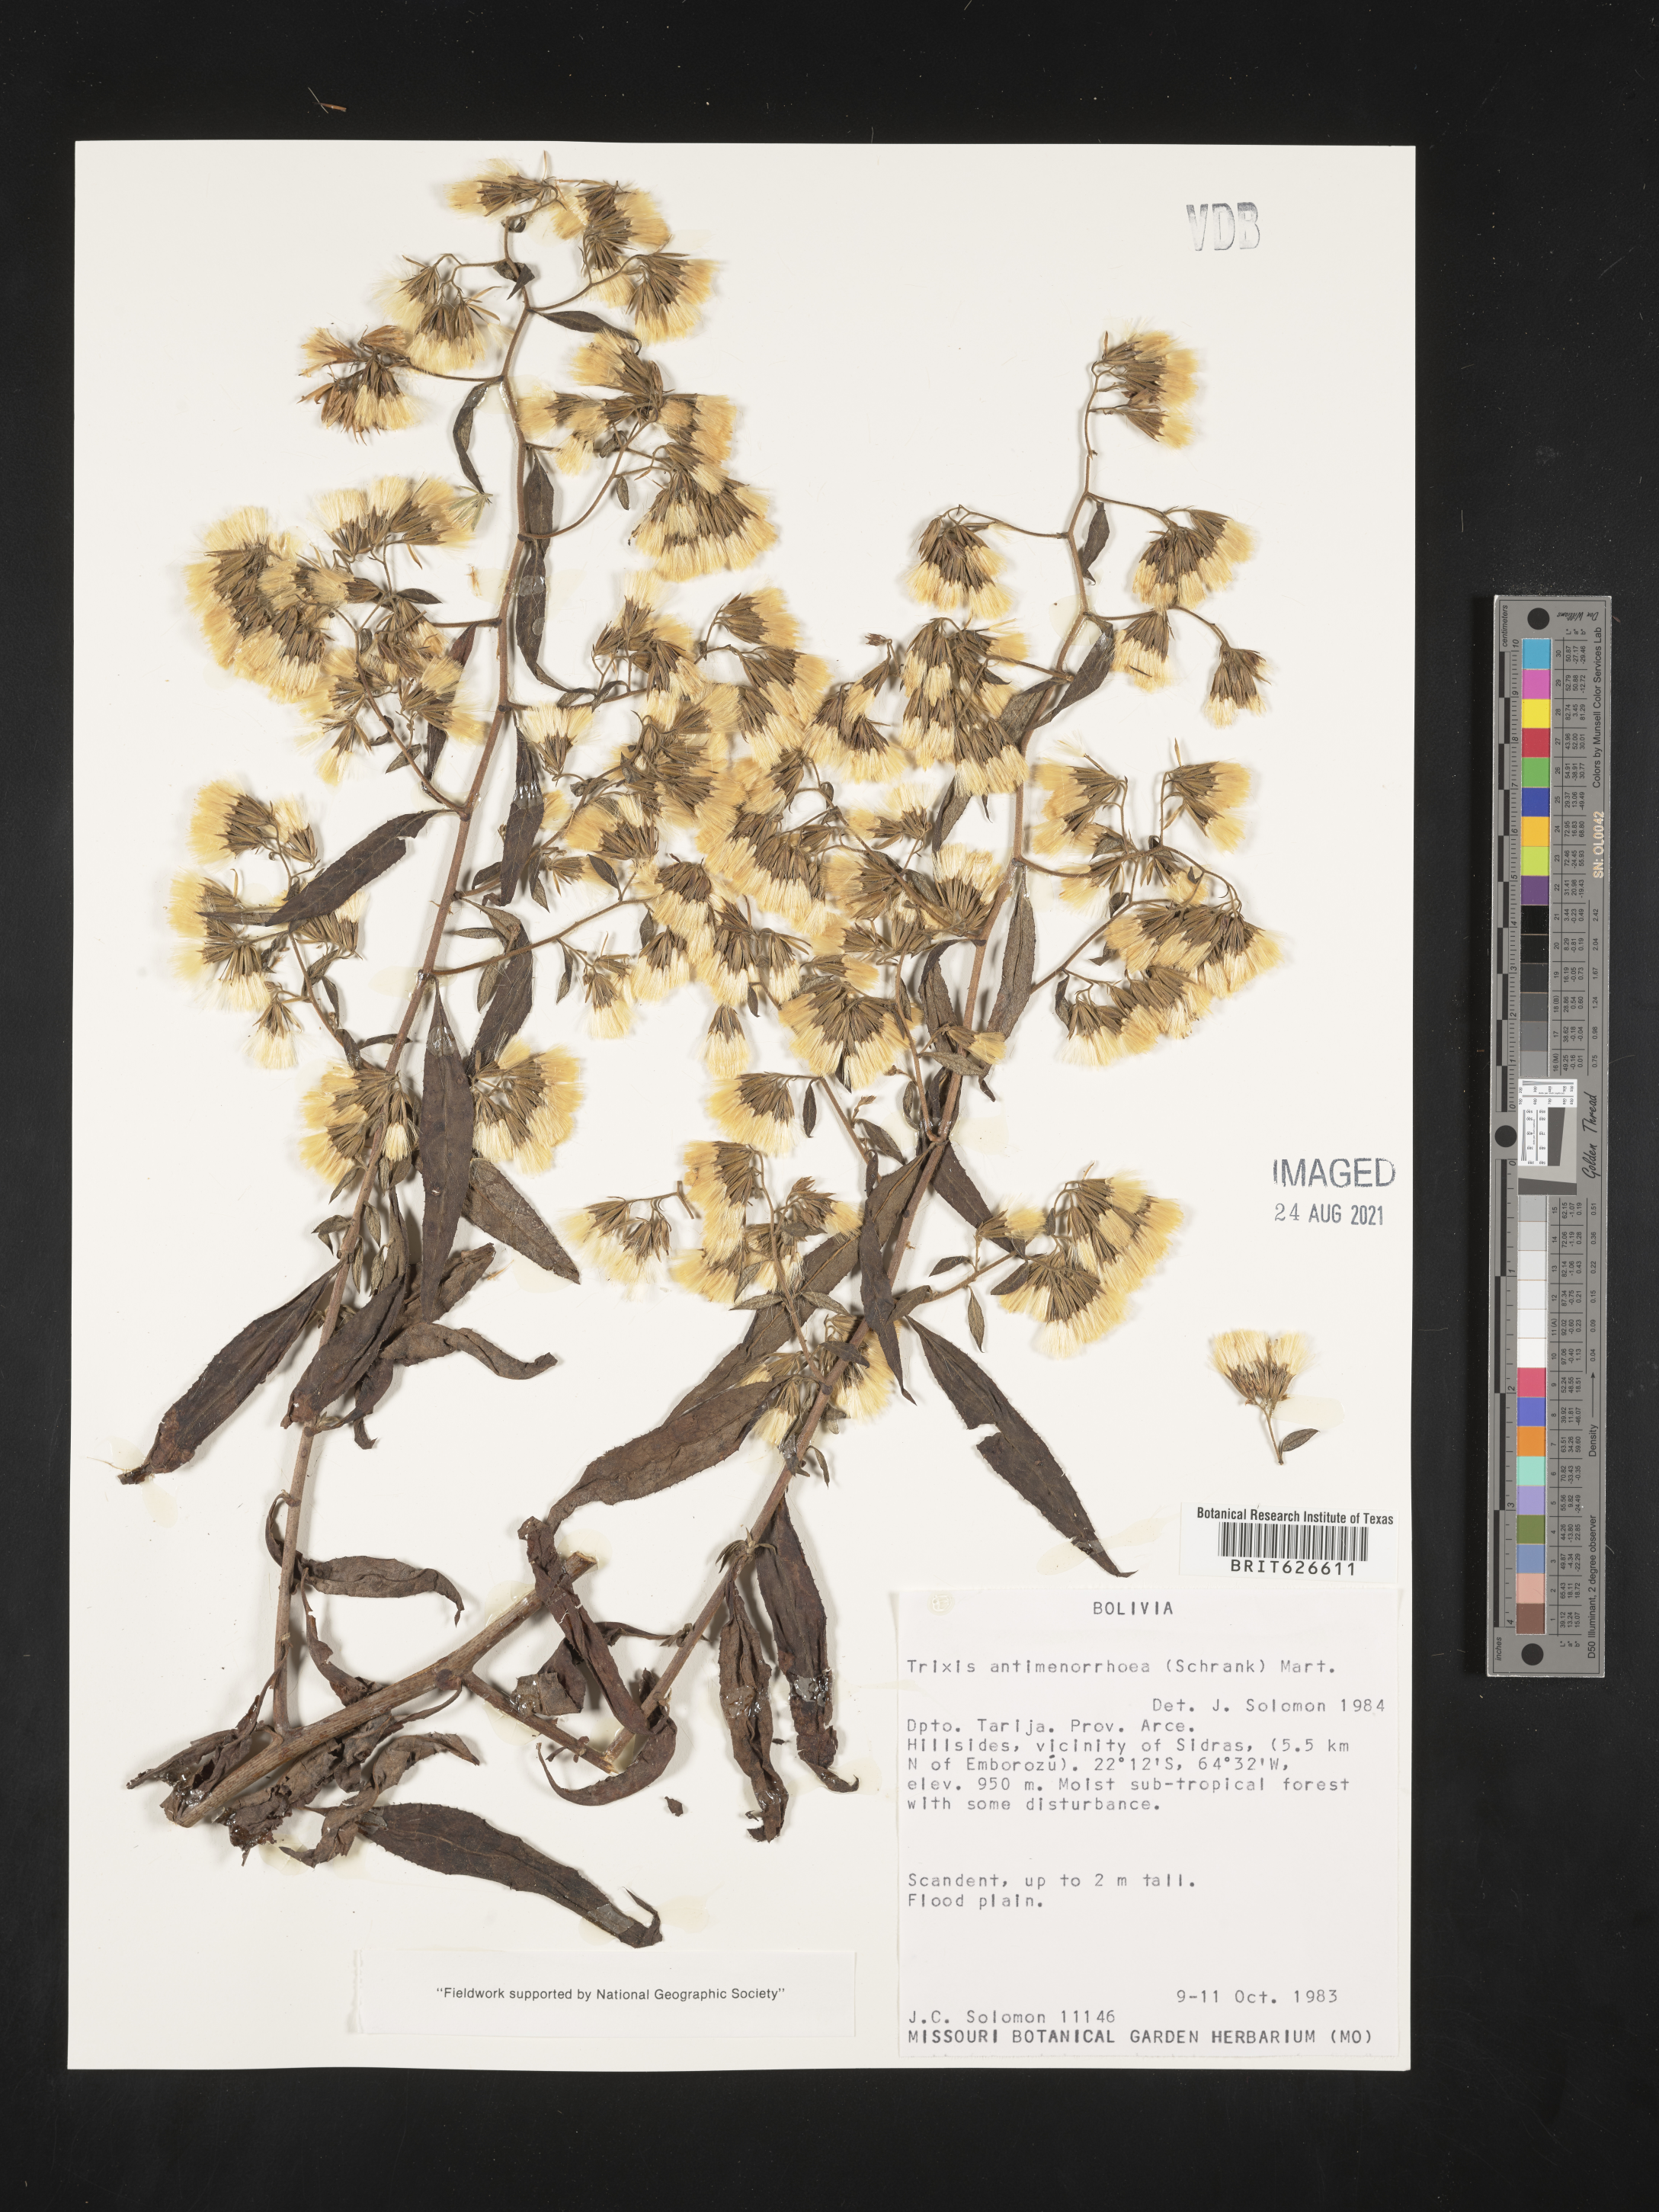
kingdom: Plantae
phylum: Tracheophyta
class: Magnoliopsida
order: Asterales
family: Asteraceae
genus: Trixis
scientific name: Trixis divaricata
